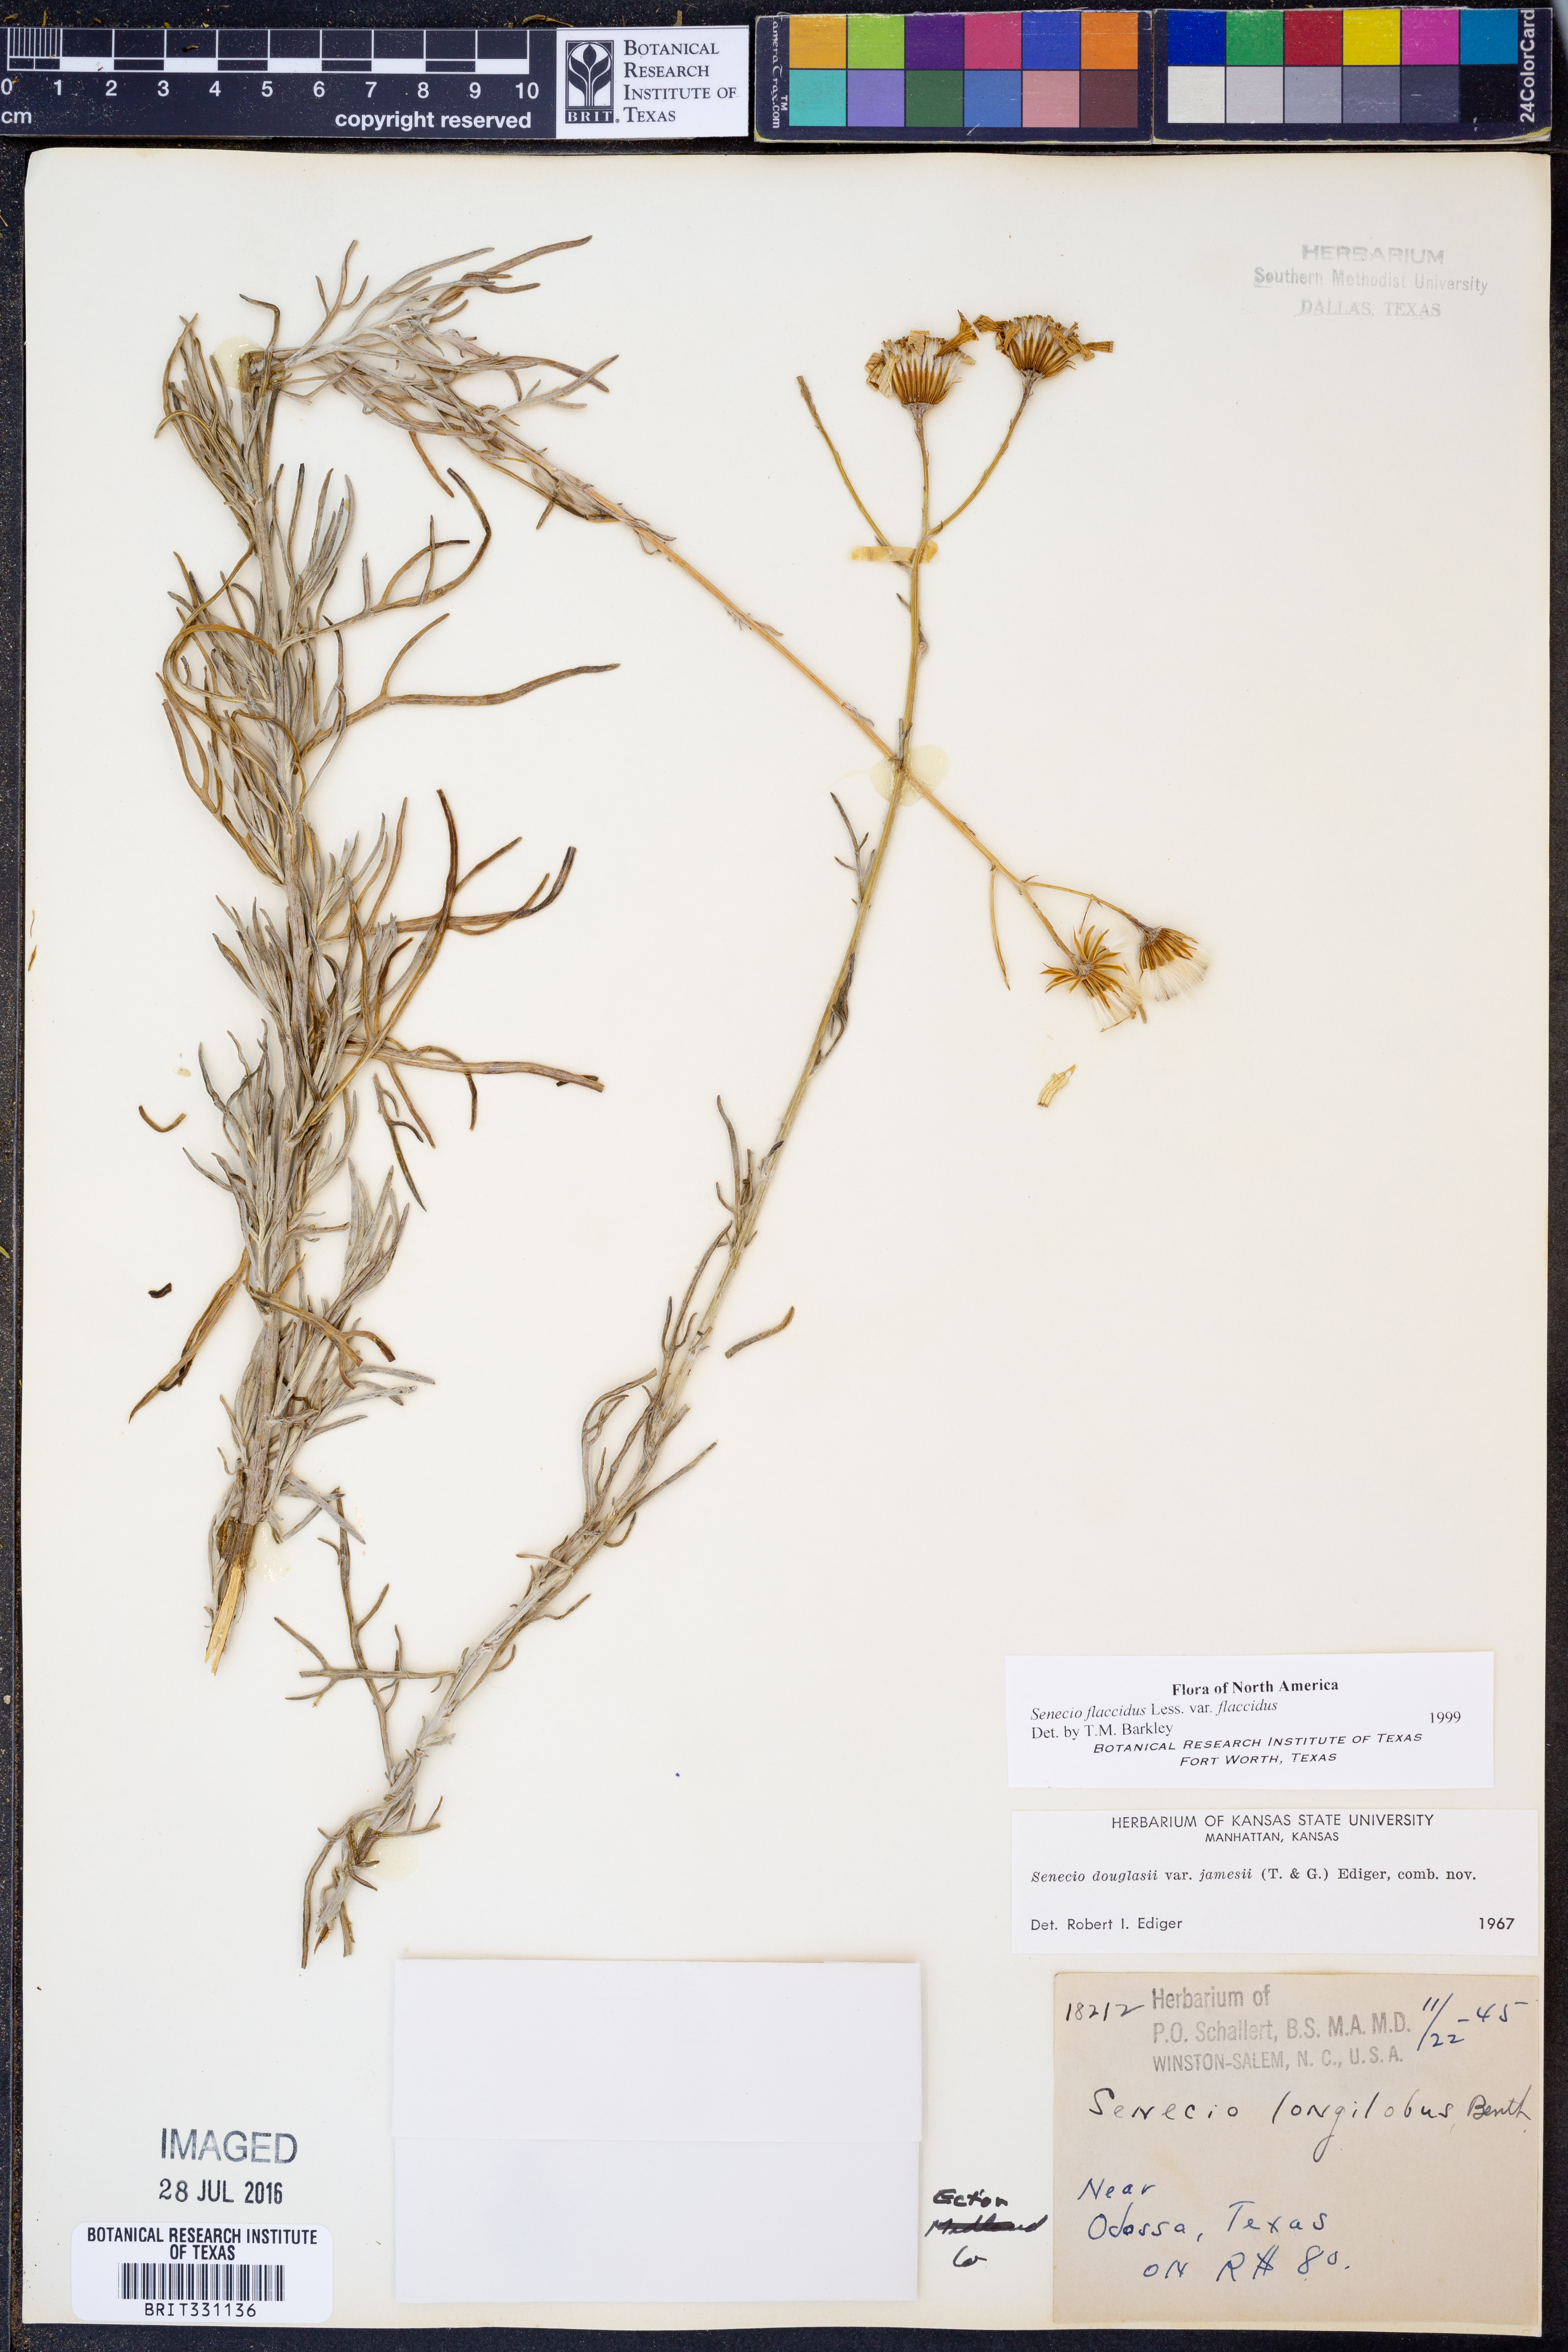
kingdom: Plantae
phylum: Tracheophyta
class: Magnoliopsida
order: Asterales
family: Asteraceae
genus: Senecio
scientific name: Senecio flaccidus
